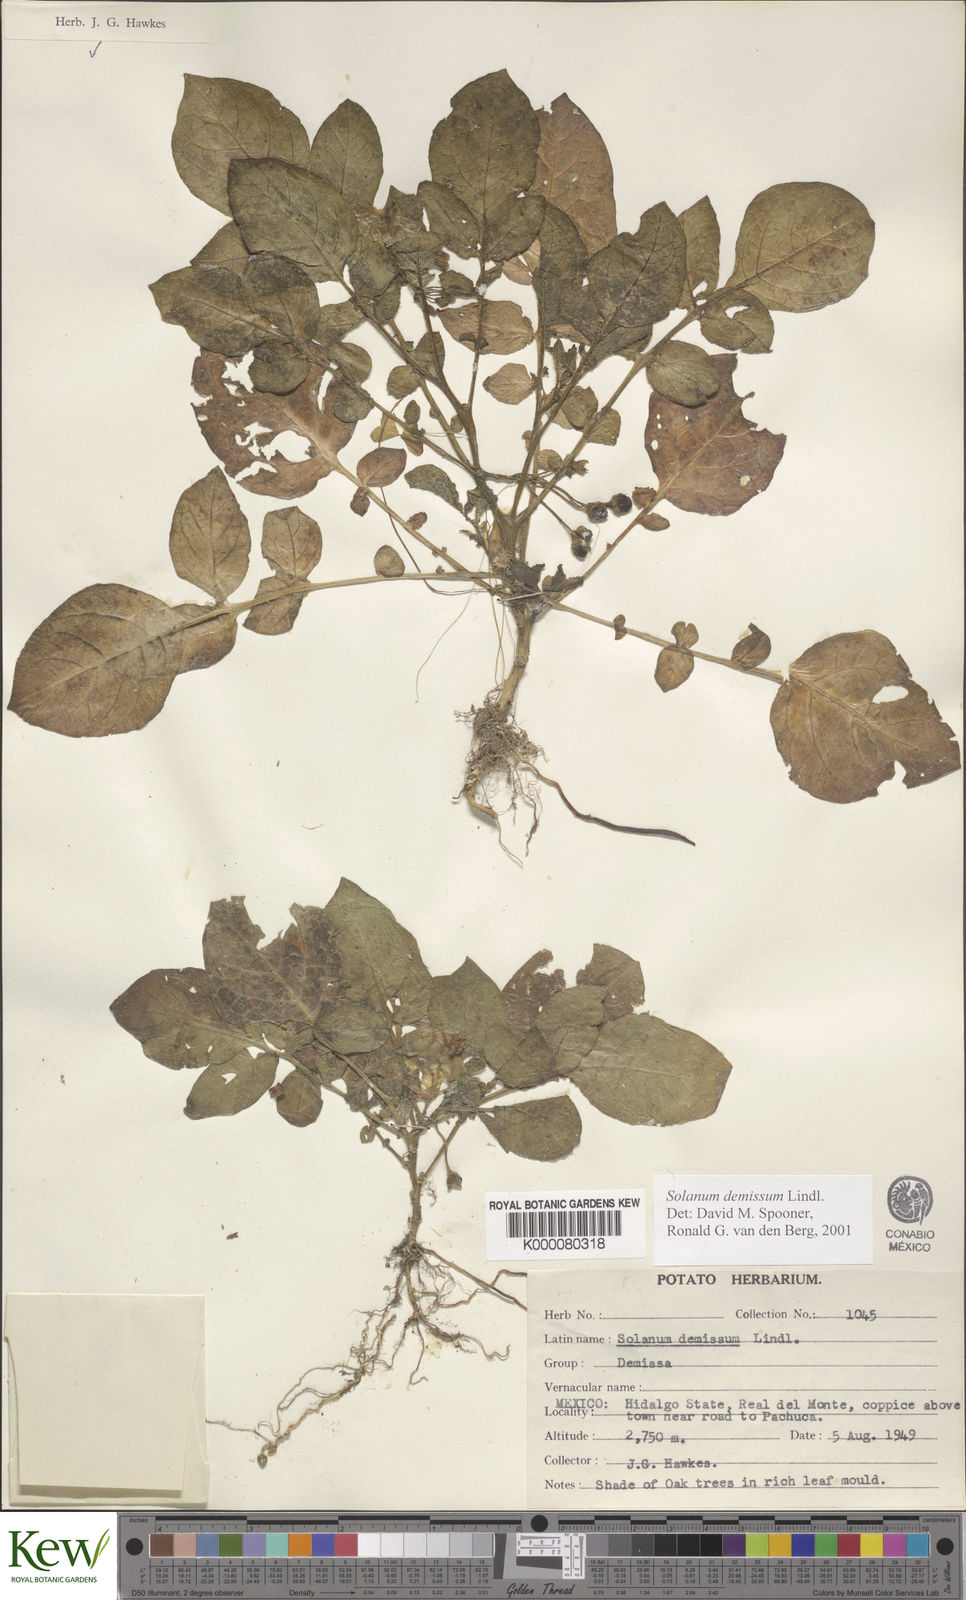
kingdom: Plantae
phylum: Tracheophyta
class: Magnoliopsida
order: Solanales
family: Solanaceae
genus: Solanum
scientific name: Solanum demissum
